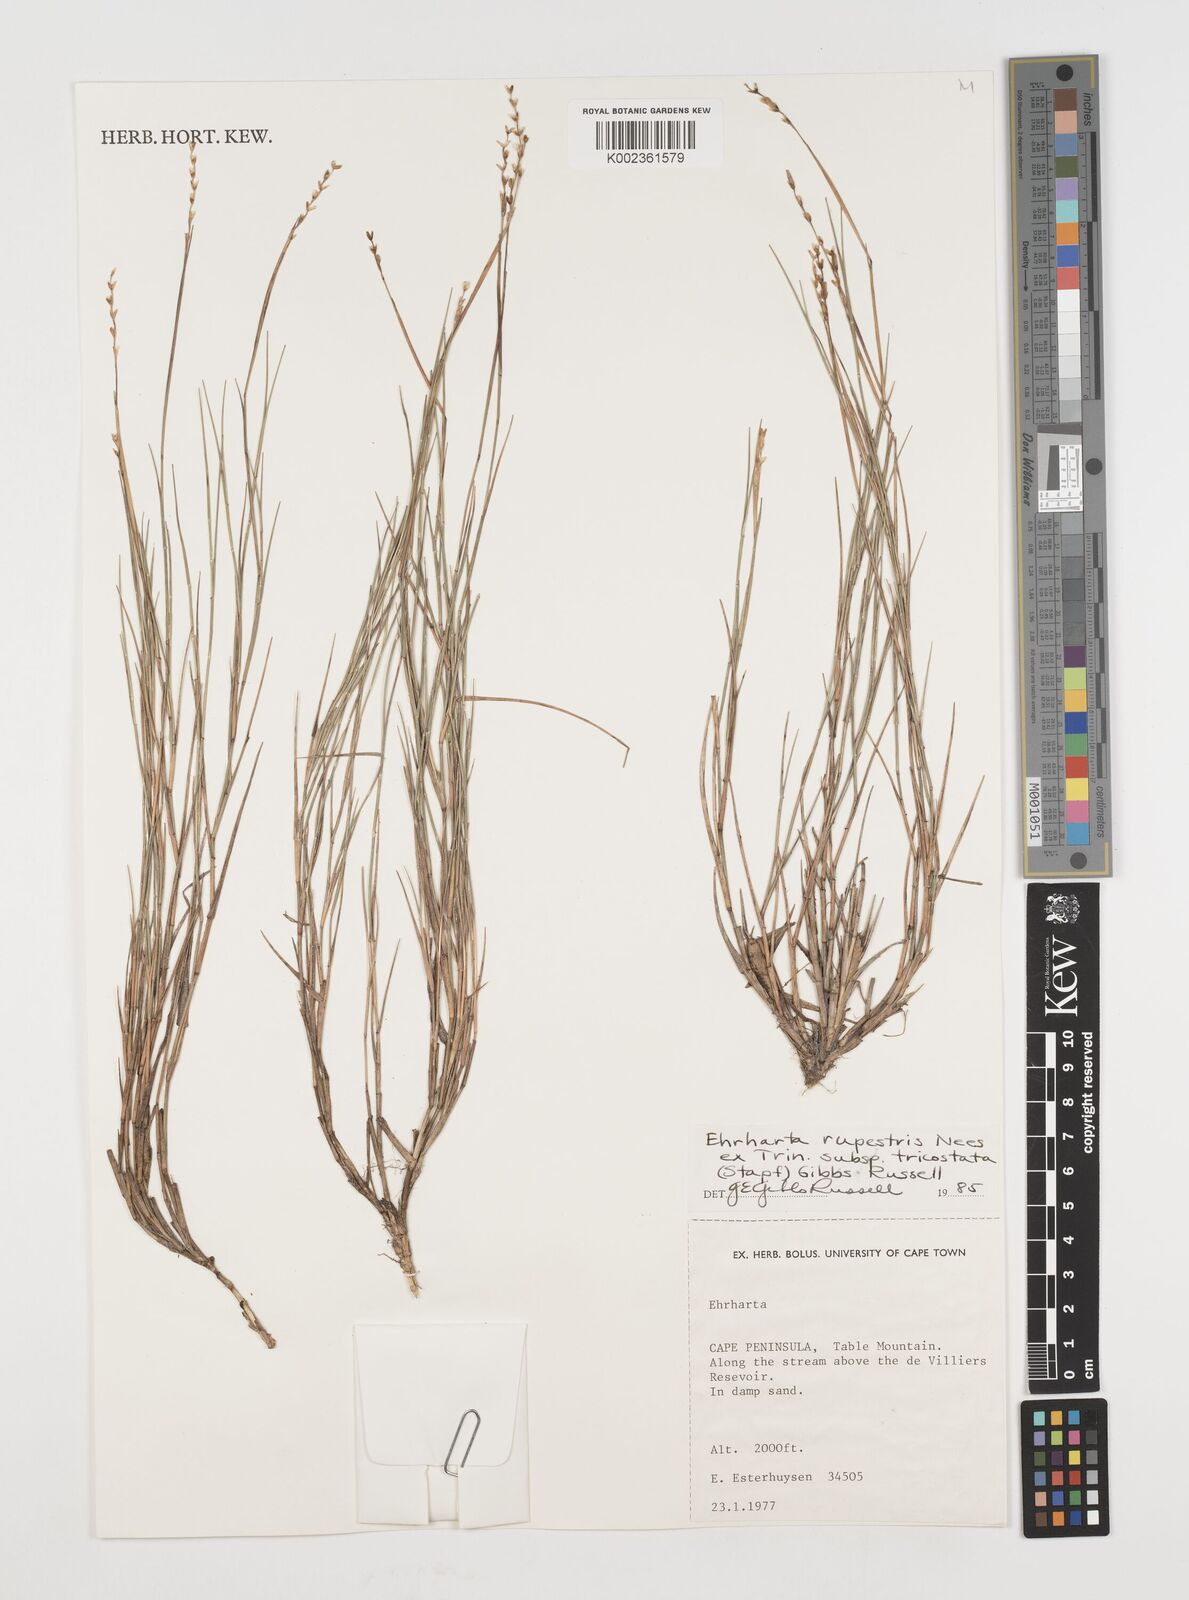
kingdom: Plantae
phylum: Tracheophyta
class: Liliopsida
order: Poales
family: Poaceae
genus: Ehrharta
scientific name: Ehrharta rupestris
